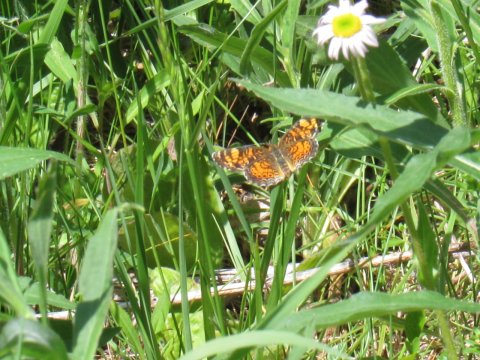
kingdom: Animalia
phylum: Arthropoda
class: Insecta
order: Lepidoptera
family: Nymphalidae
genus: Phyciodes
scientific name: Phyciodes tharos
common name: Pearl Crescent
